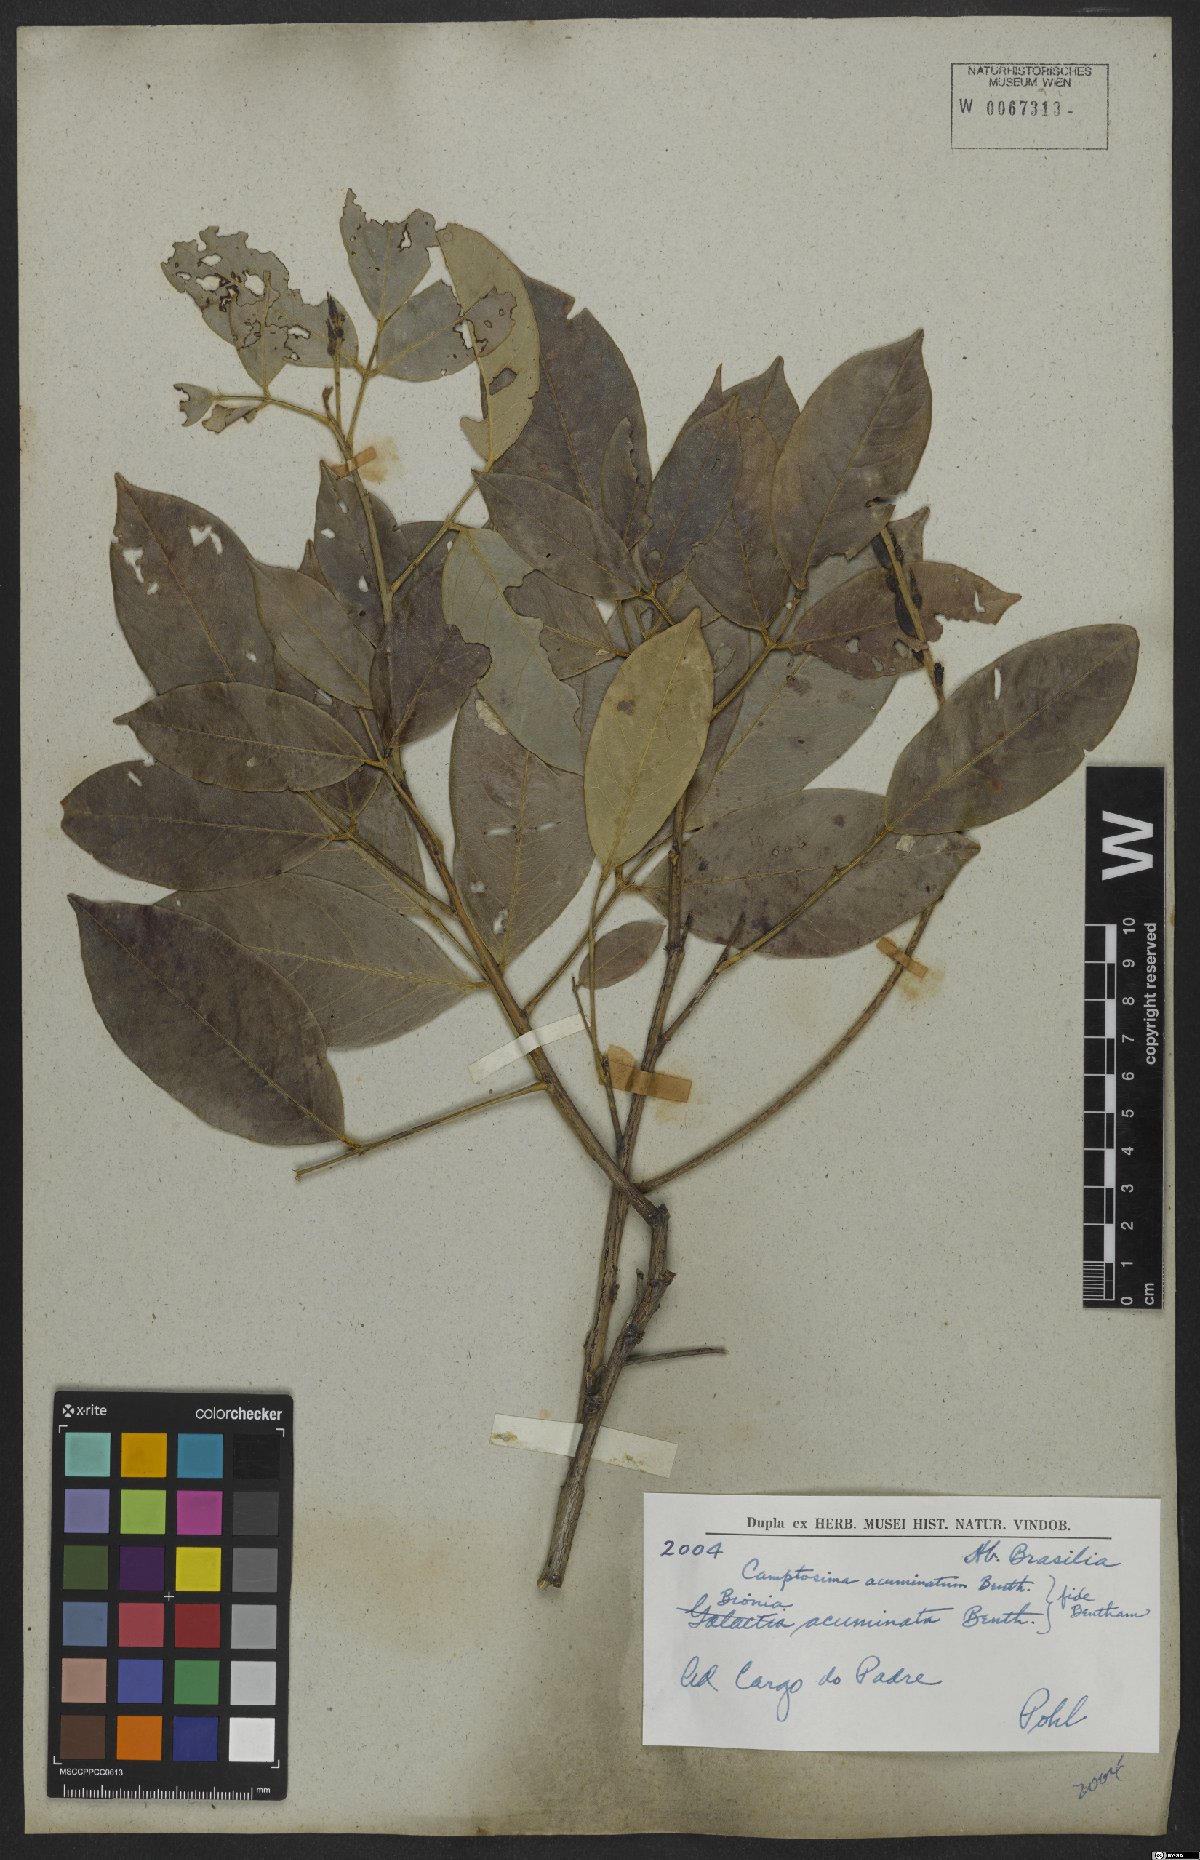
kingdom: Plantae
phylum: Tracheophyta
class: Magnoliopsida
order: Fabales
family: Fabaceae
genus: Camptosema
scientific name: Camptosema acuminatum
